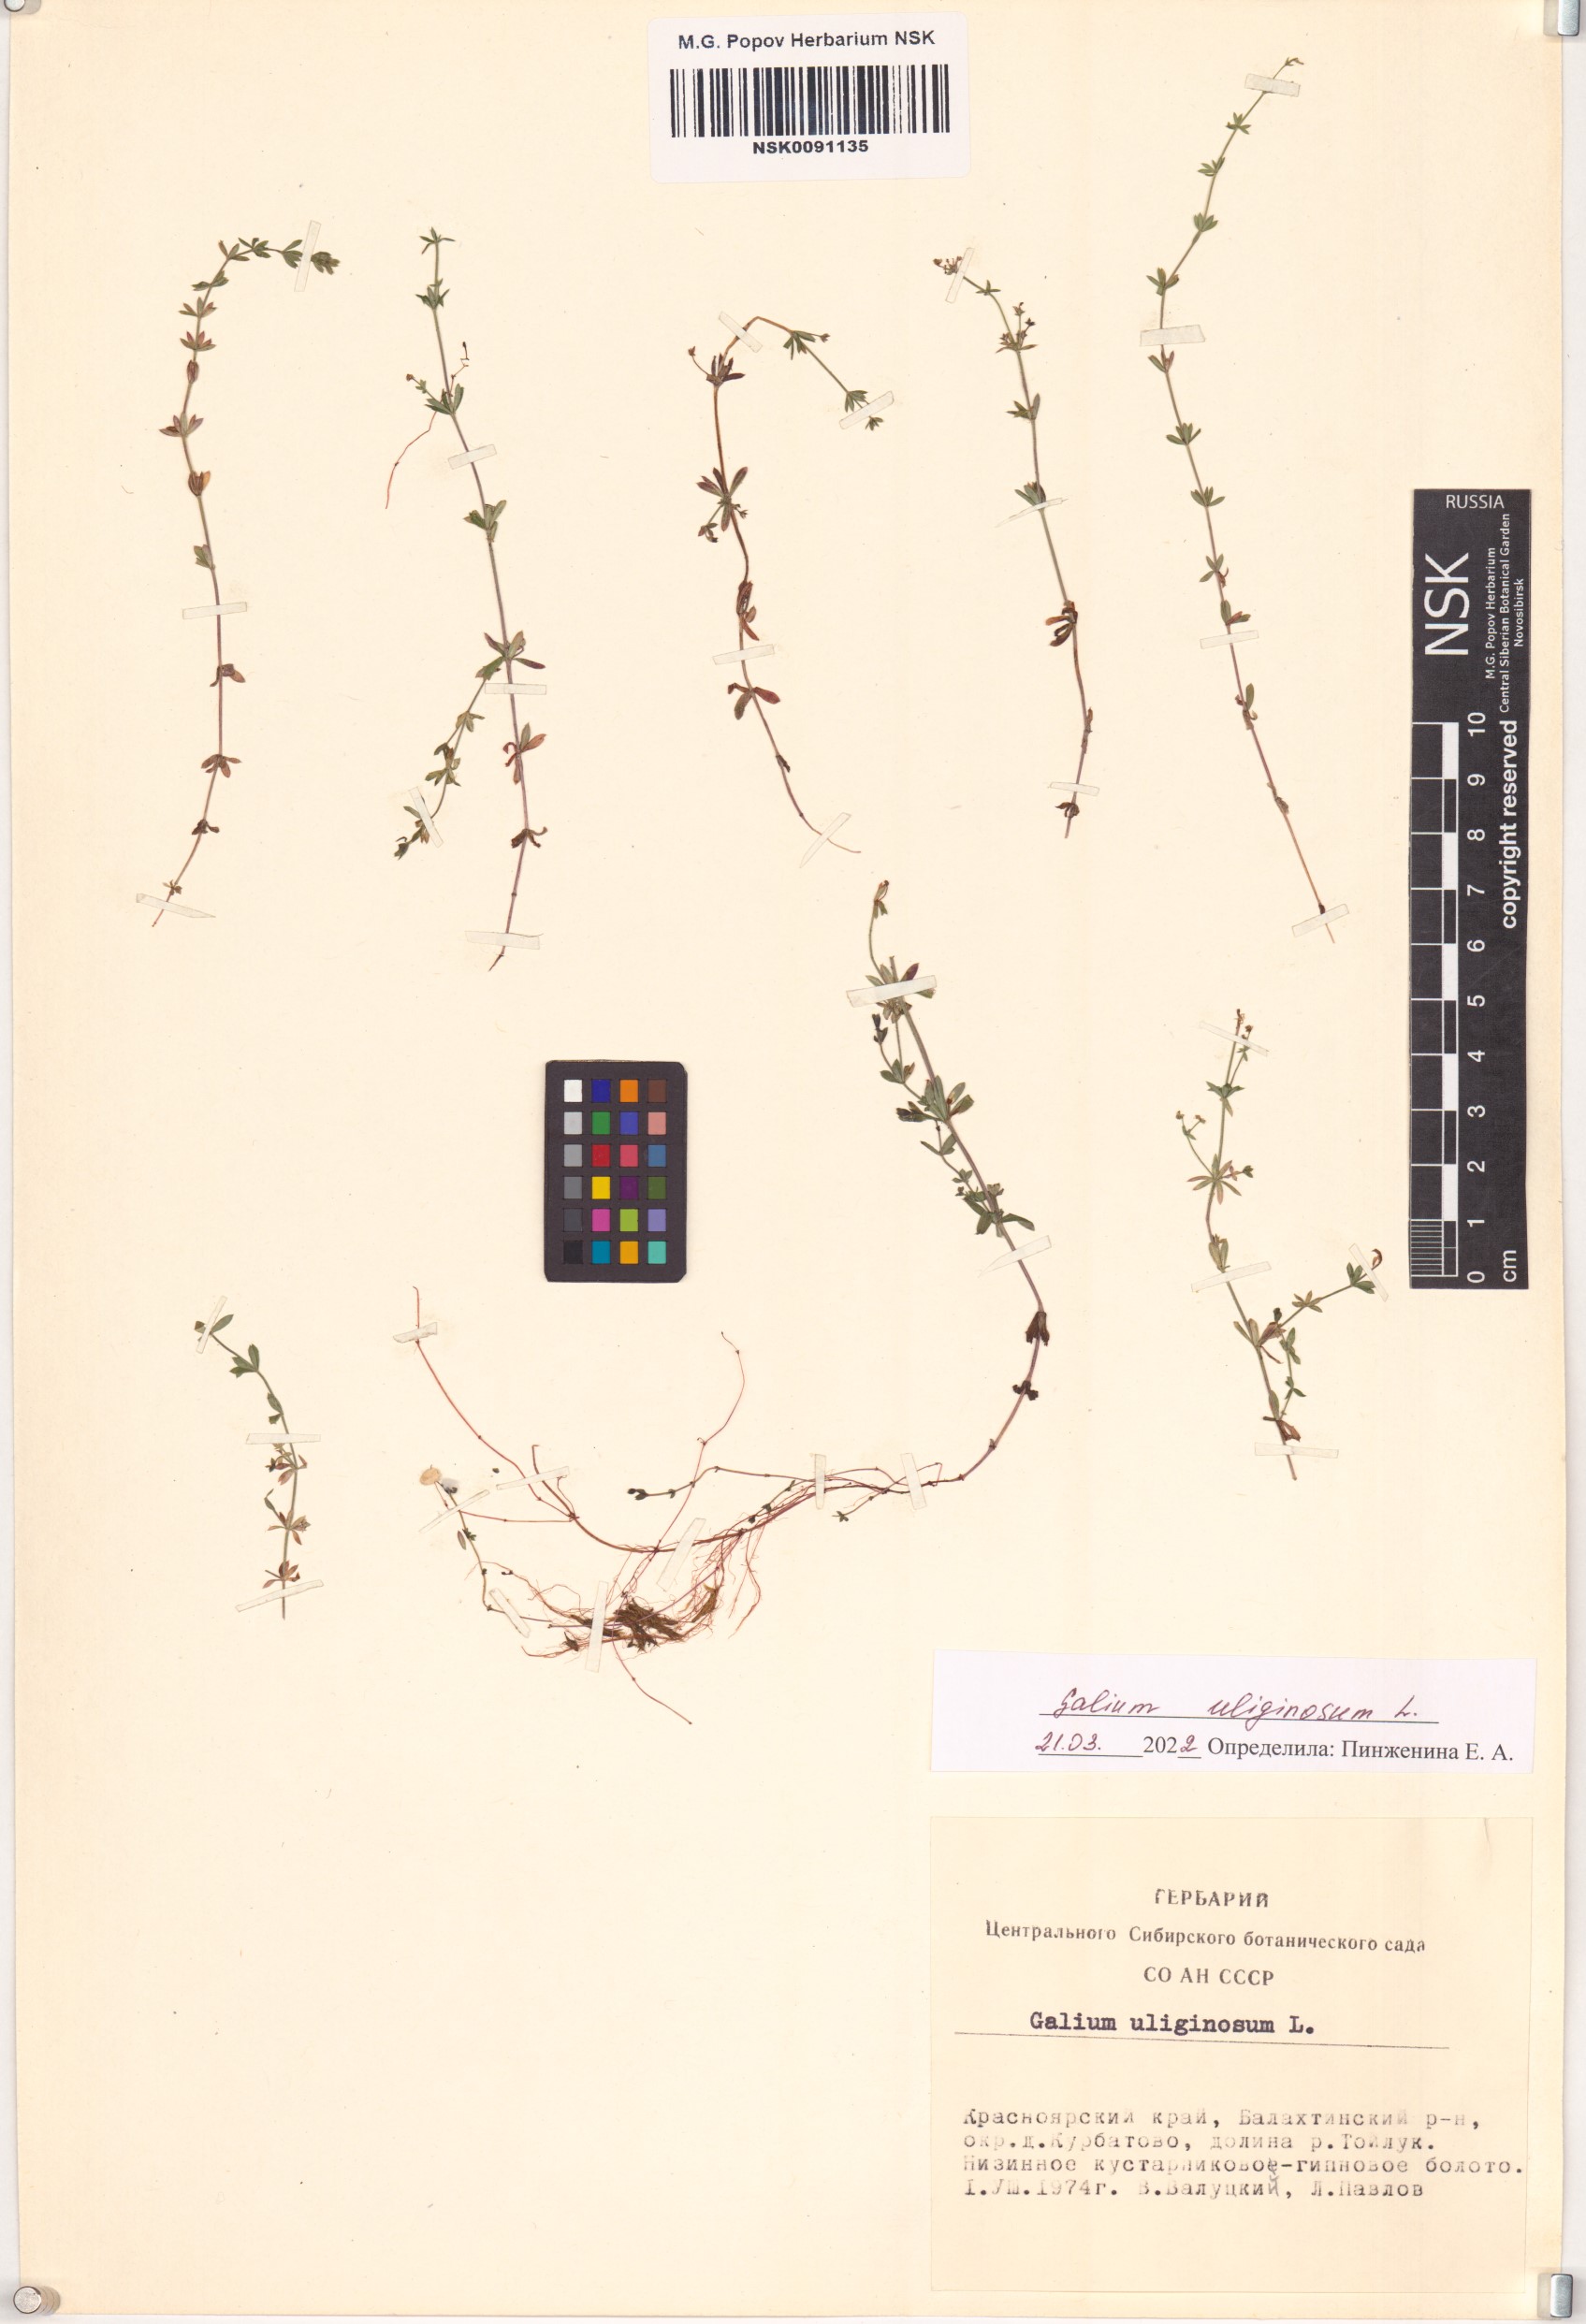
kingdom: Plantae
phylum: Tracheophyta
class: Magnoliopsida
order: Gentianales
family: Rubiaceae
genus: Galium
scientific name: Galium uliginosum
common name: Fen bedstraw
